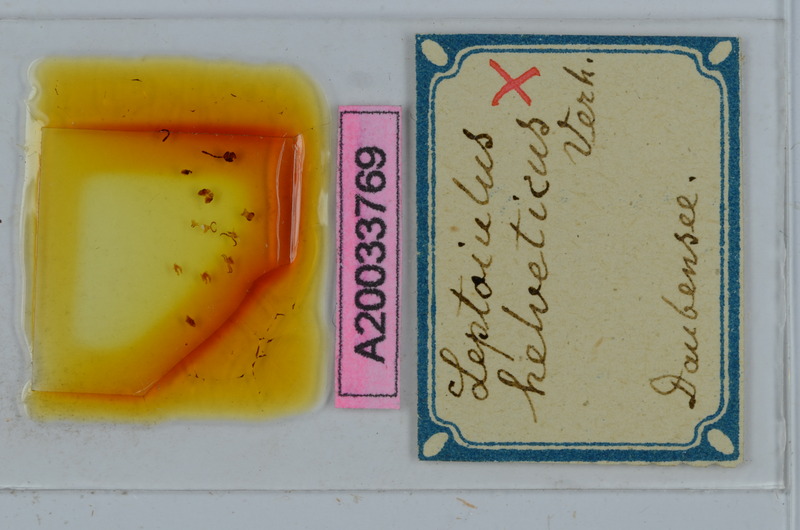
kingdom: Animalia
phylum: Arthropoda
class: Diplopoda
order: Julida
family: Julidae
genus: Leptoiulus
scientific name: Leptoiulus helveticus
